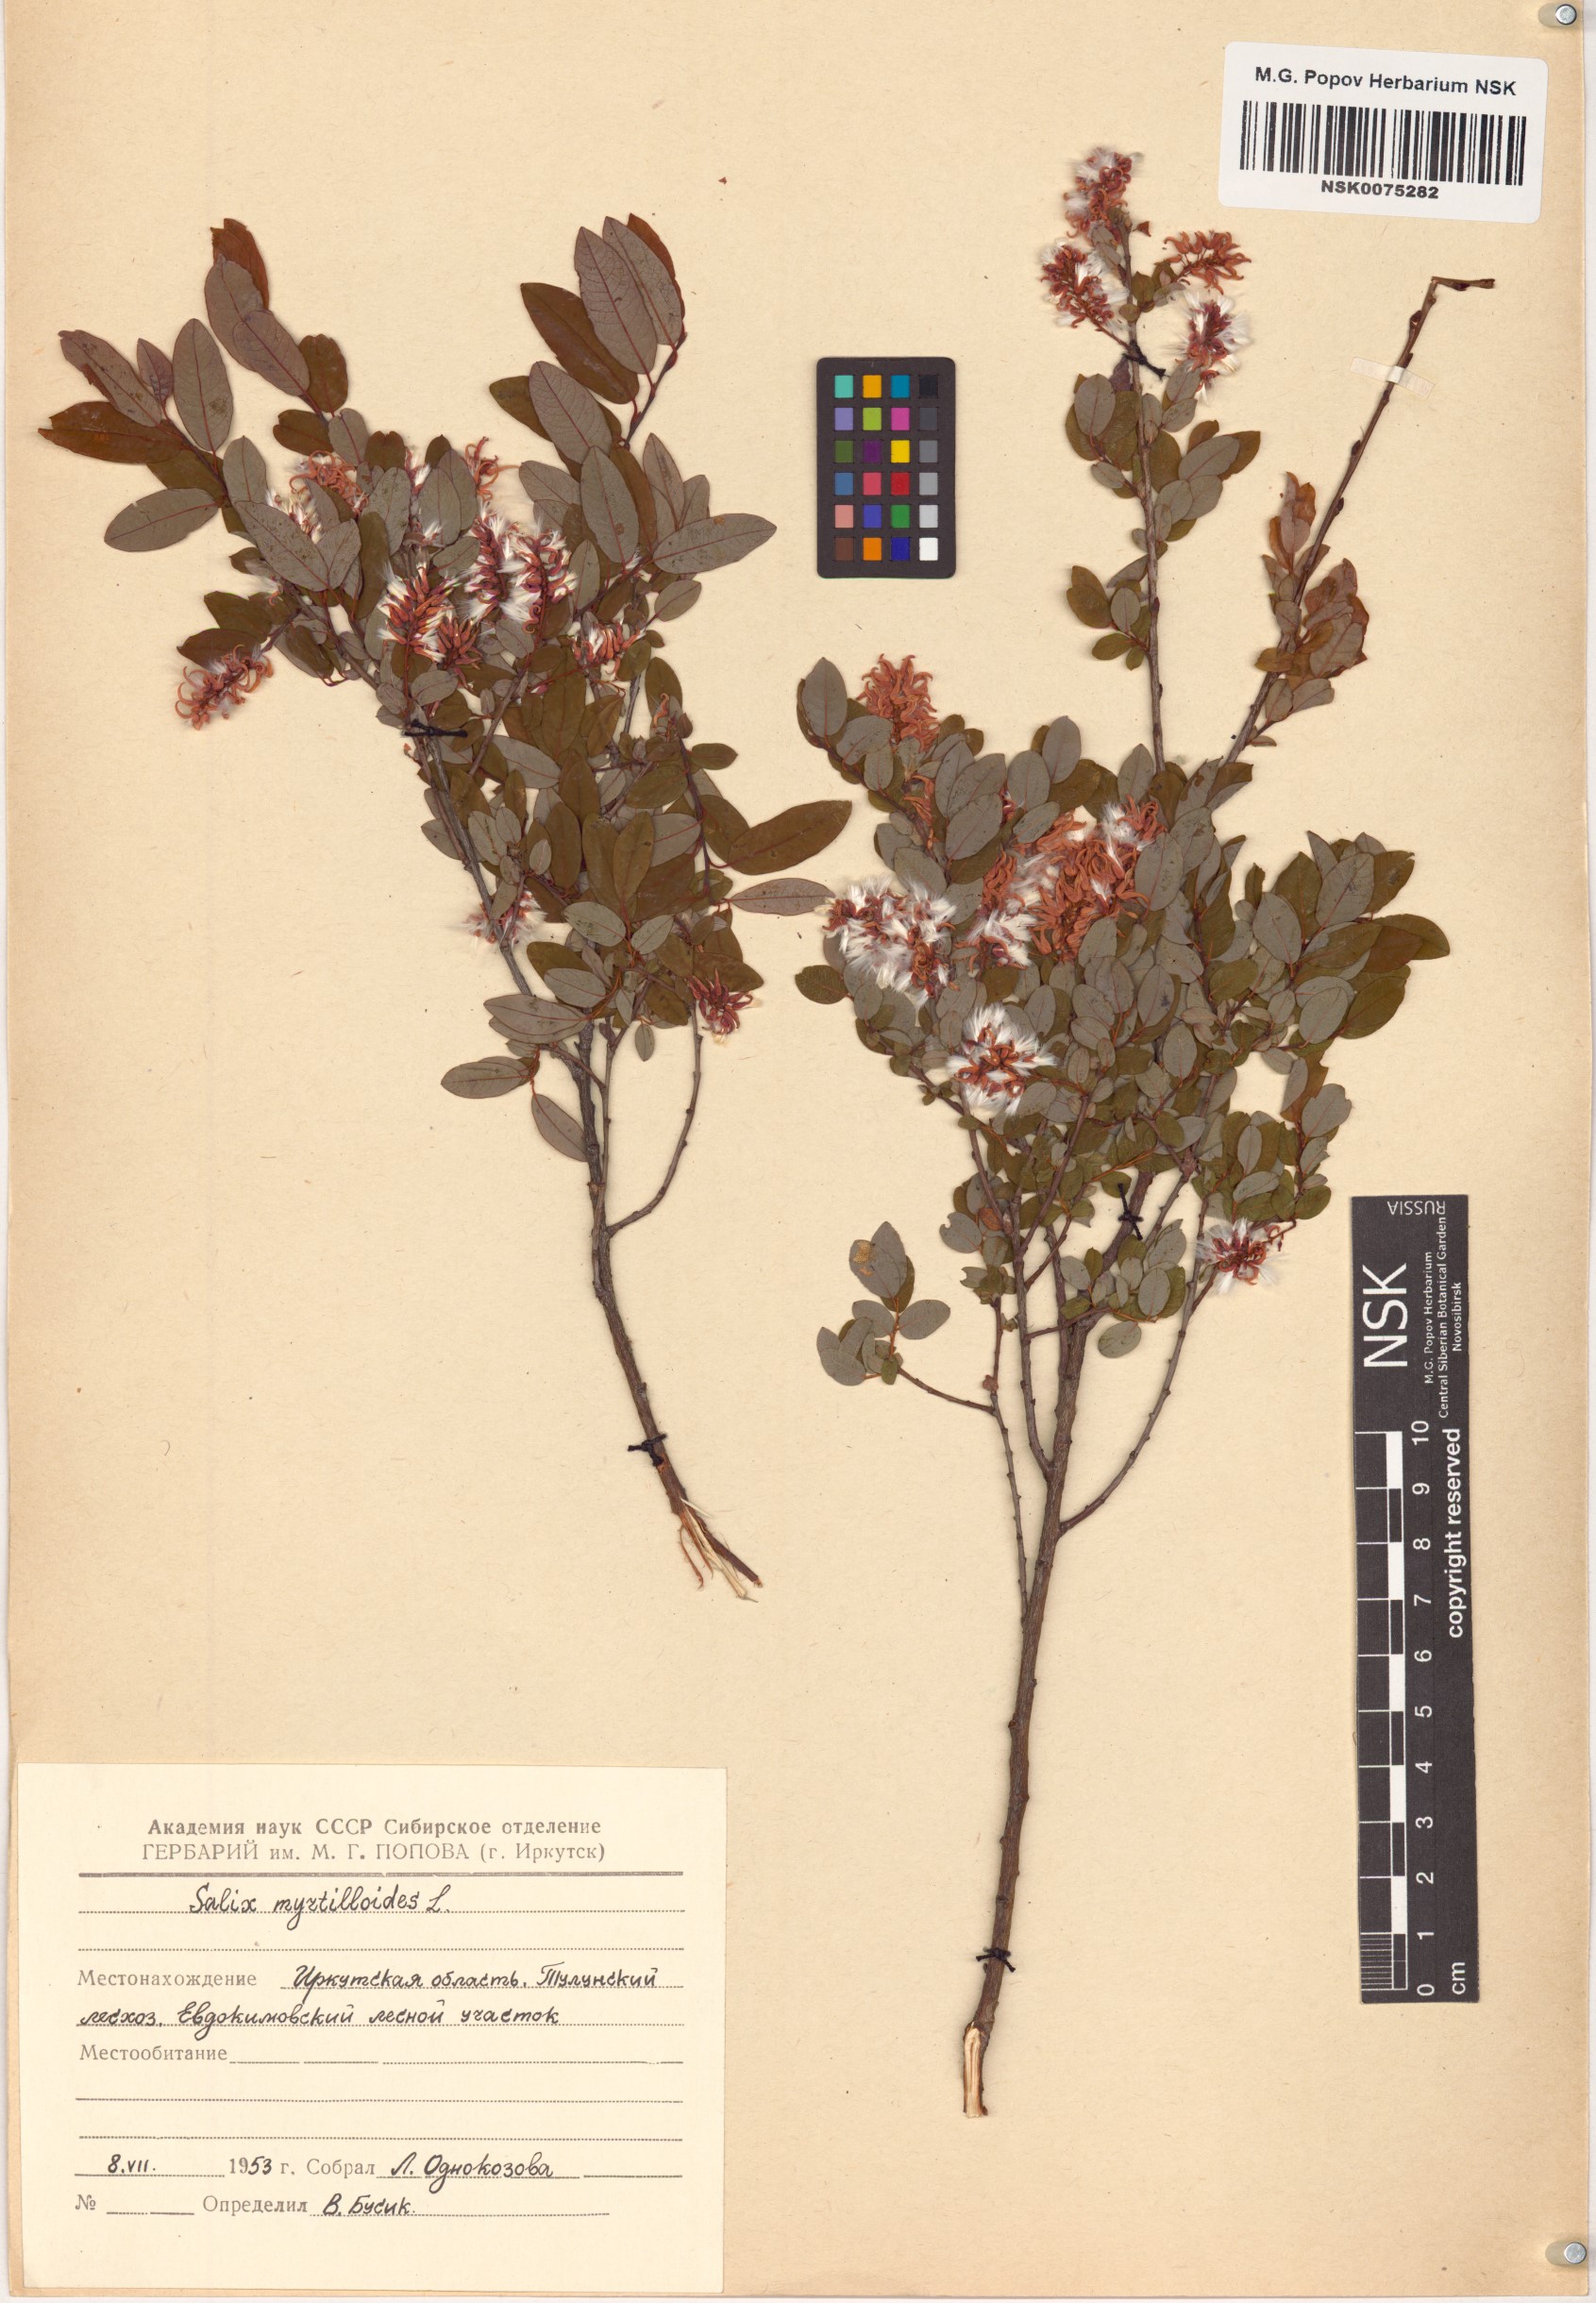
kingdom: Plantae
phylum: Tracheophyta
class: Magnoliopsida
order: Malpighiales
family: Salicaceae
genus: Salix
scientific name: Salix myrtilloides
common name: Myrtle-leaved willow
